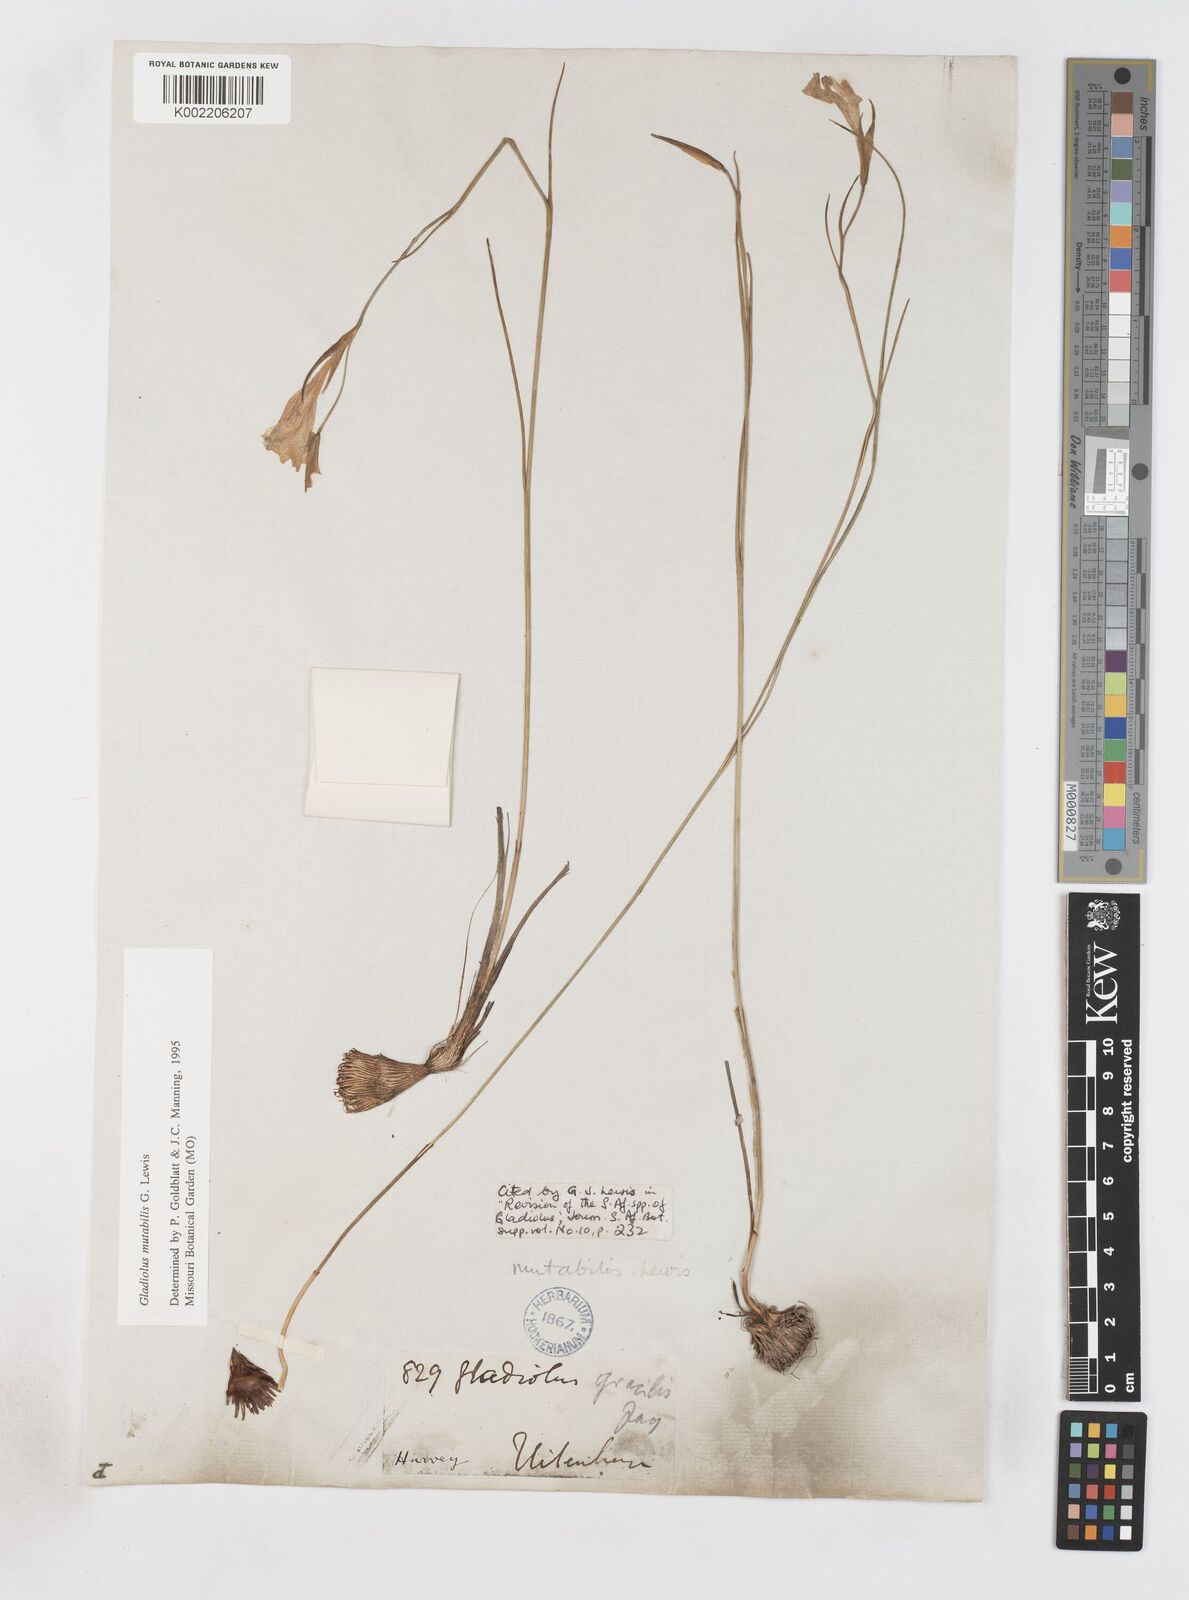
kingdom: Plantae
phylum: Tracheophyta
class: Liliopsida
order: Asparagales
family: Iridaceae
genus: Gladiolus
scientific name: Gladiolus mutabilis
